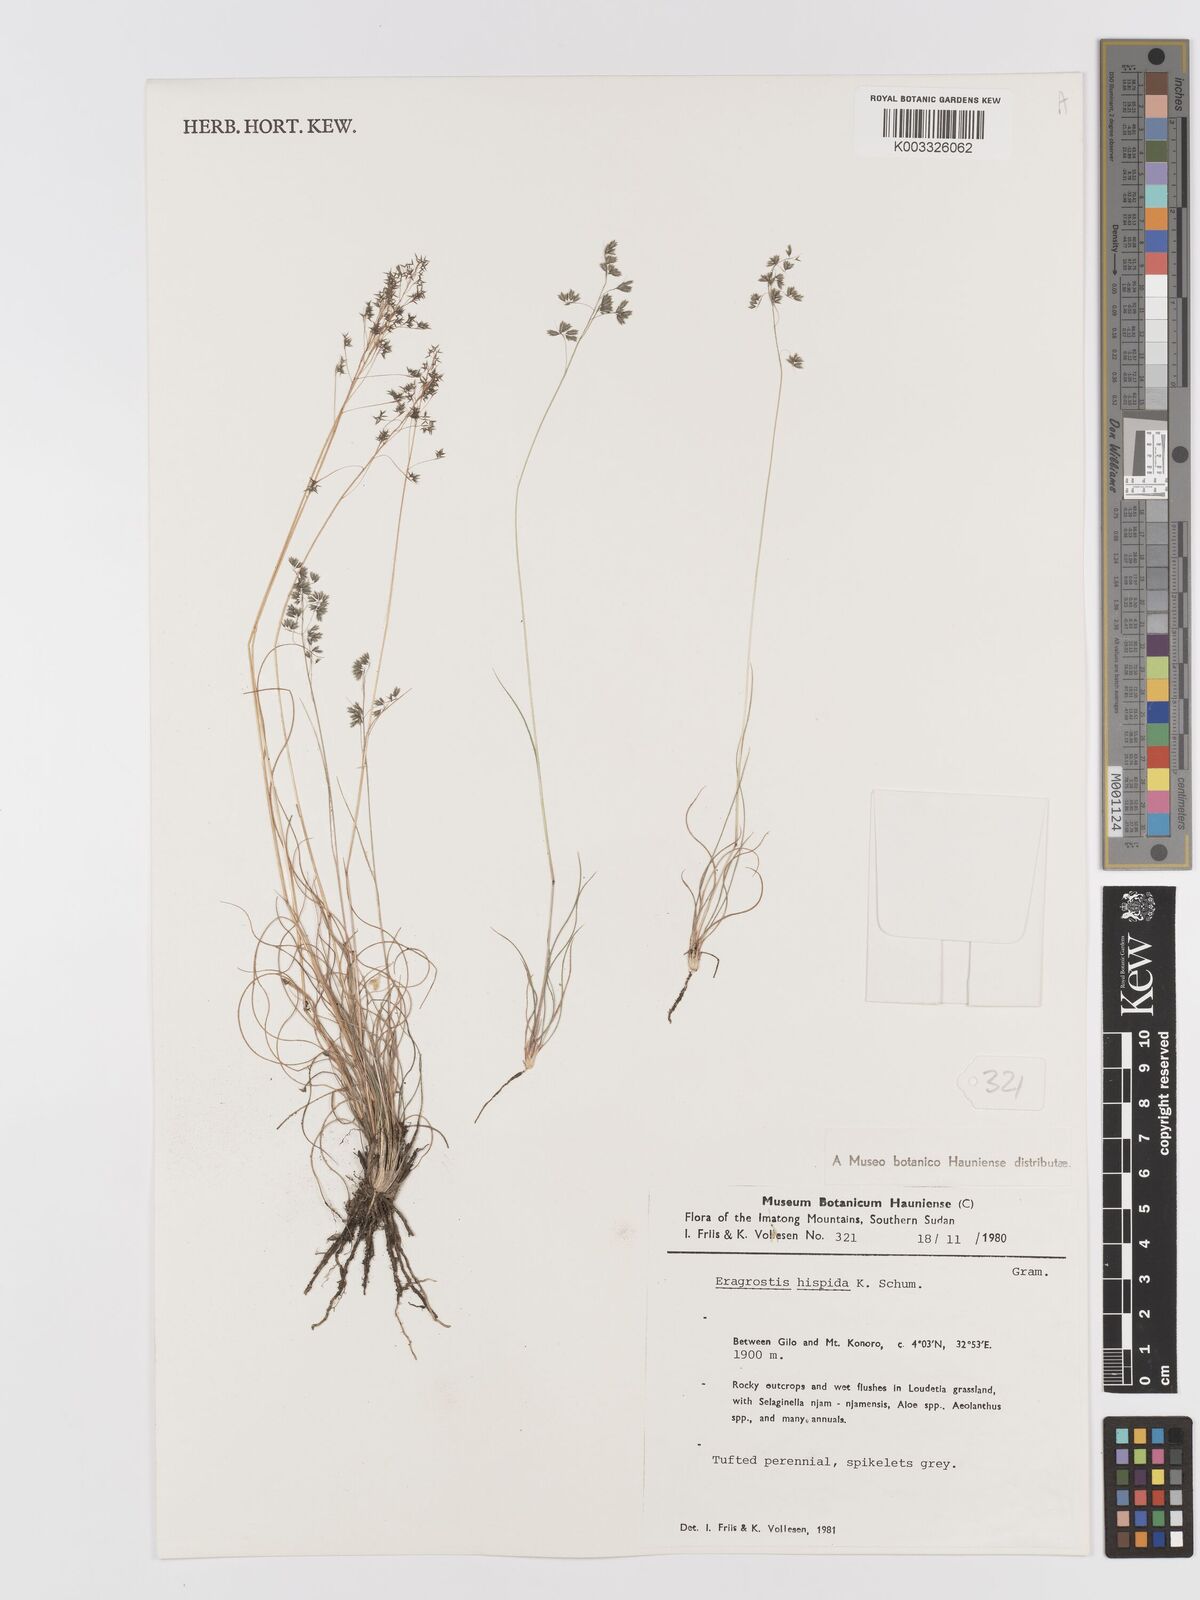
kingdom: Plantae
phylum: Tracheophyta
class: Liliopsida
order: Poales
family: Poaceae
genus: Eragrostis
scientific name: Eragrostis hispida
